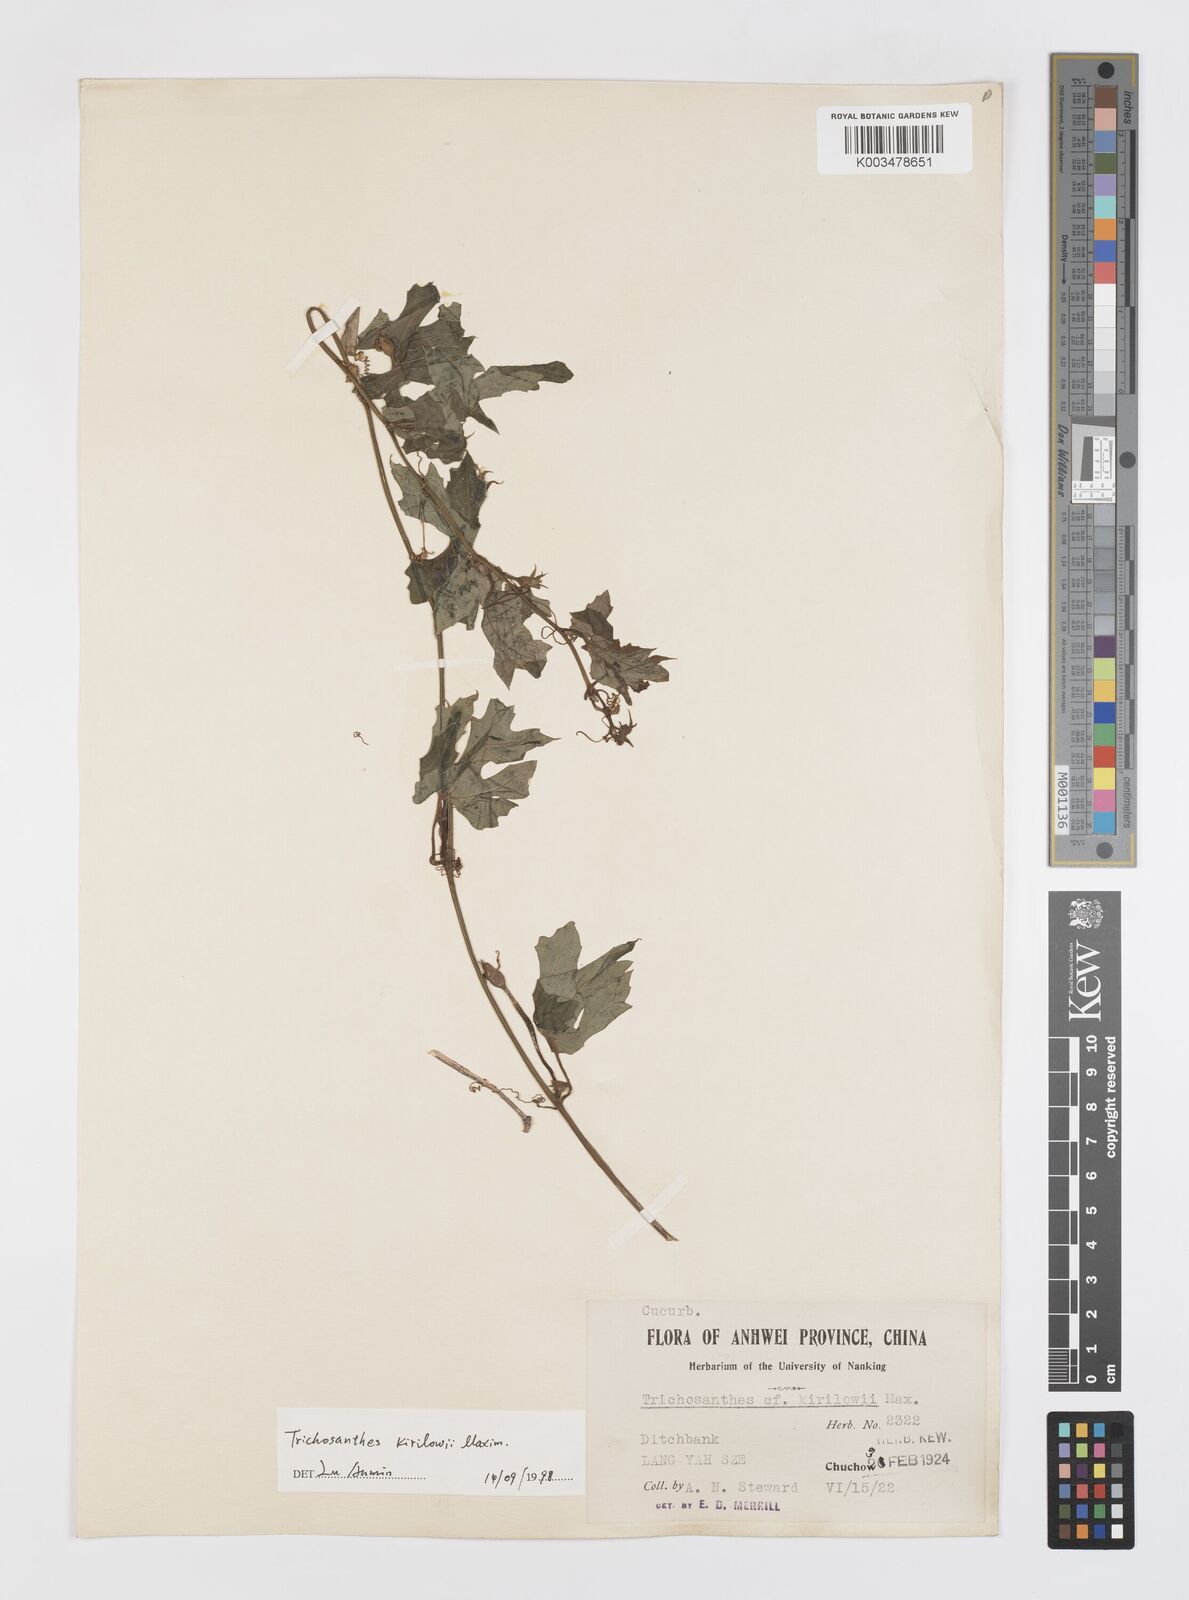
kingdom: Plantae
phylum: Tracheophyta
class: Magnoliopsida
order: Cucurbitales
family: Cucurbitaceae
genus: Trichosanthes
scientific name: Trichosanthes kirilowii
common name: Chinese-cucumber
